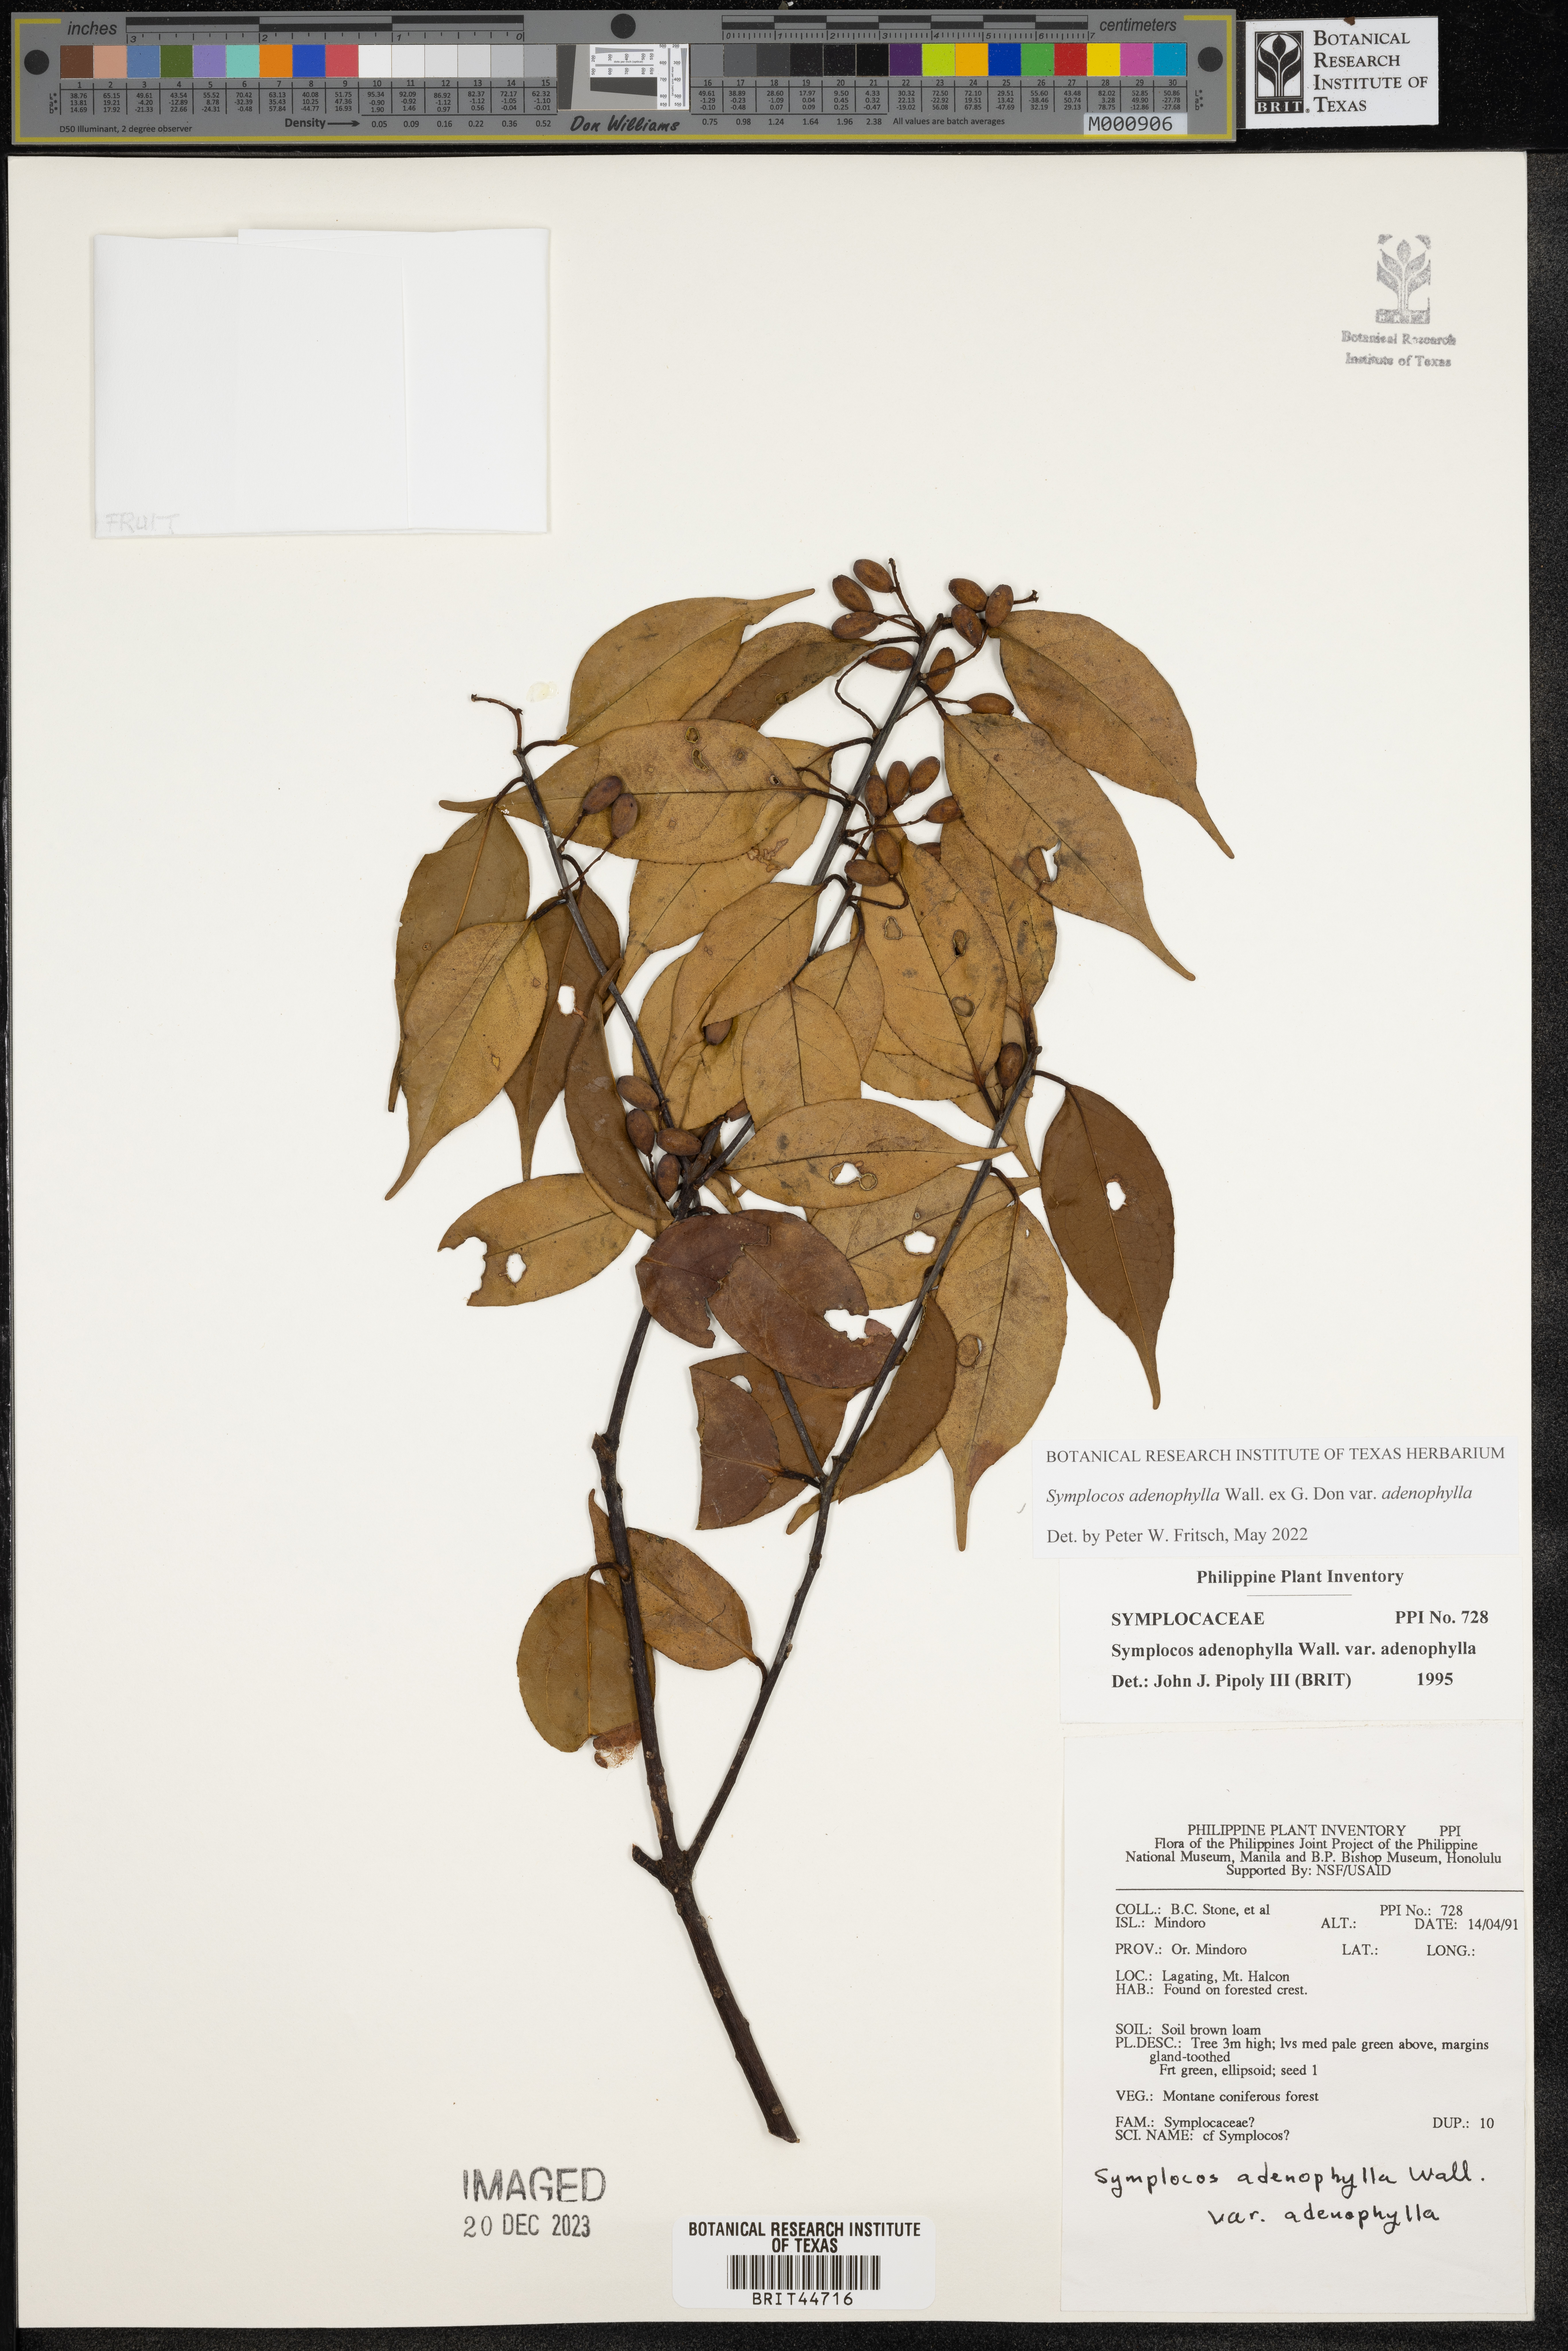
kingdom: Plantae
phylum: Tracheophyta
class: Magnoliopsida
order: Ericales
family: Symplocaceae
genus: Symplocos
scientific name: Symplocos adenophylla
